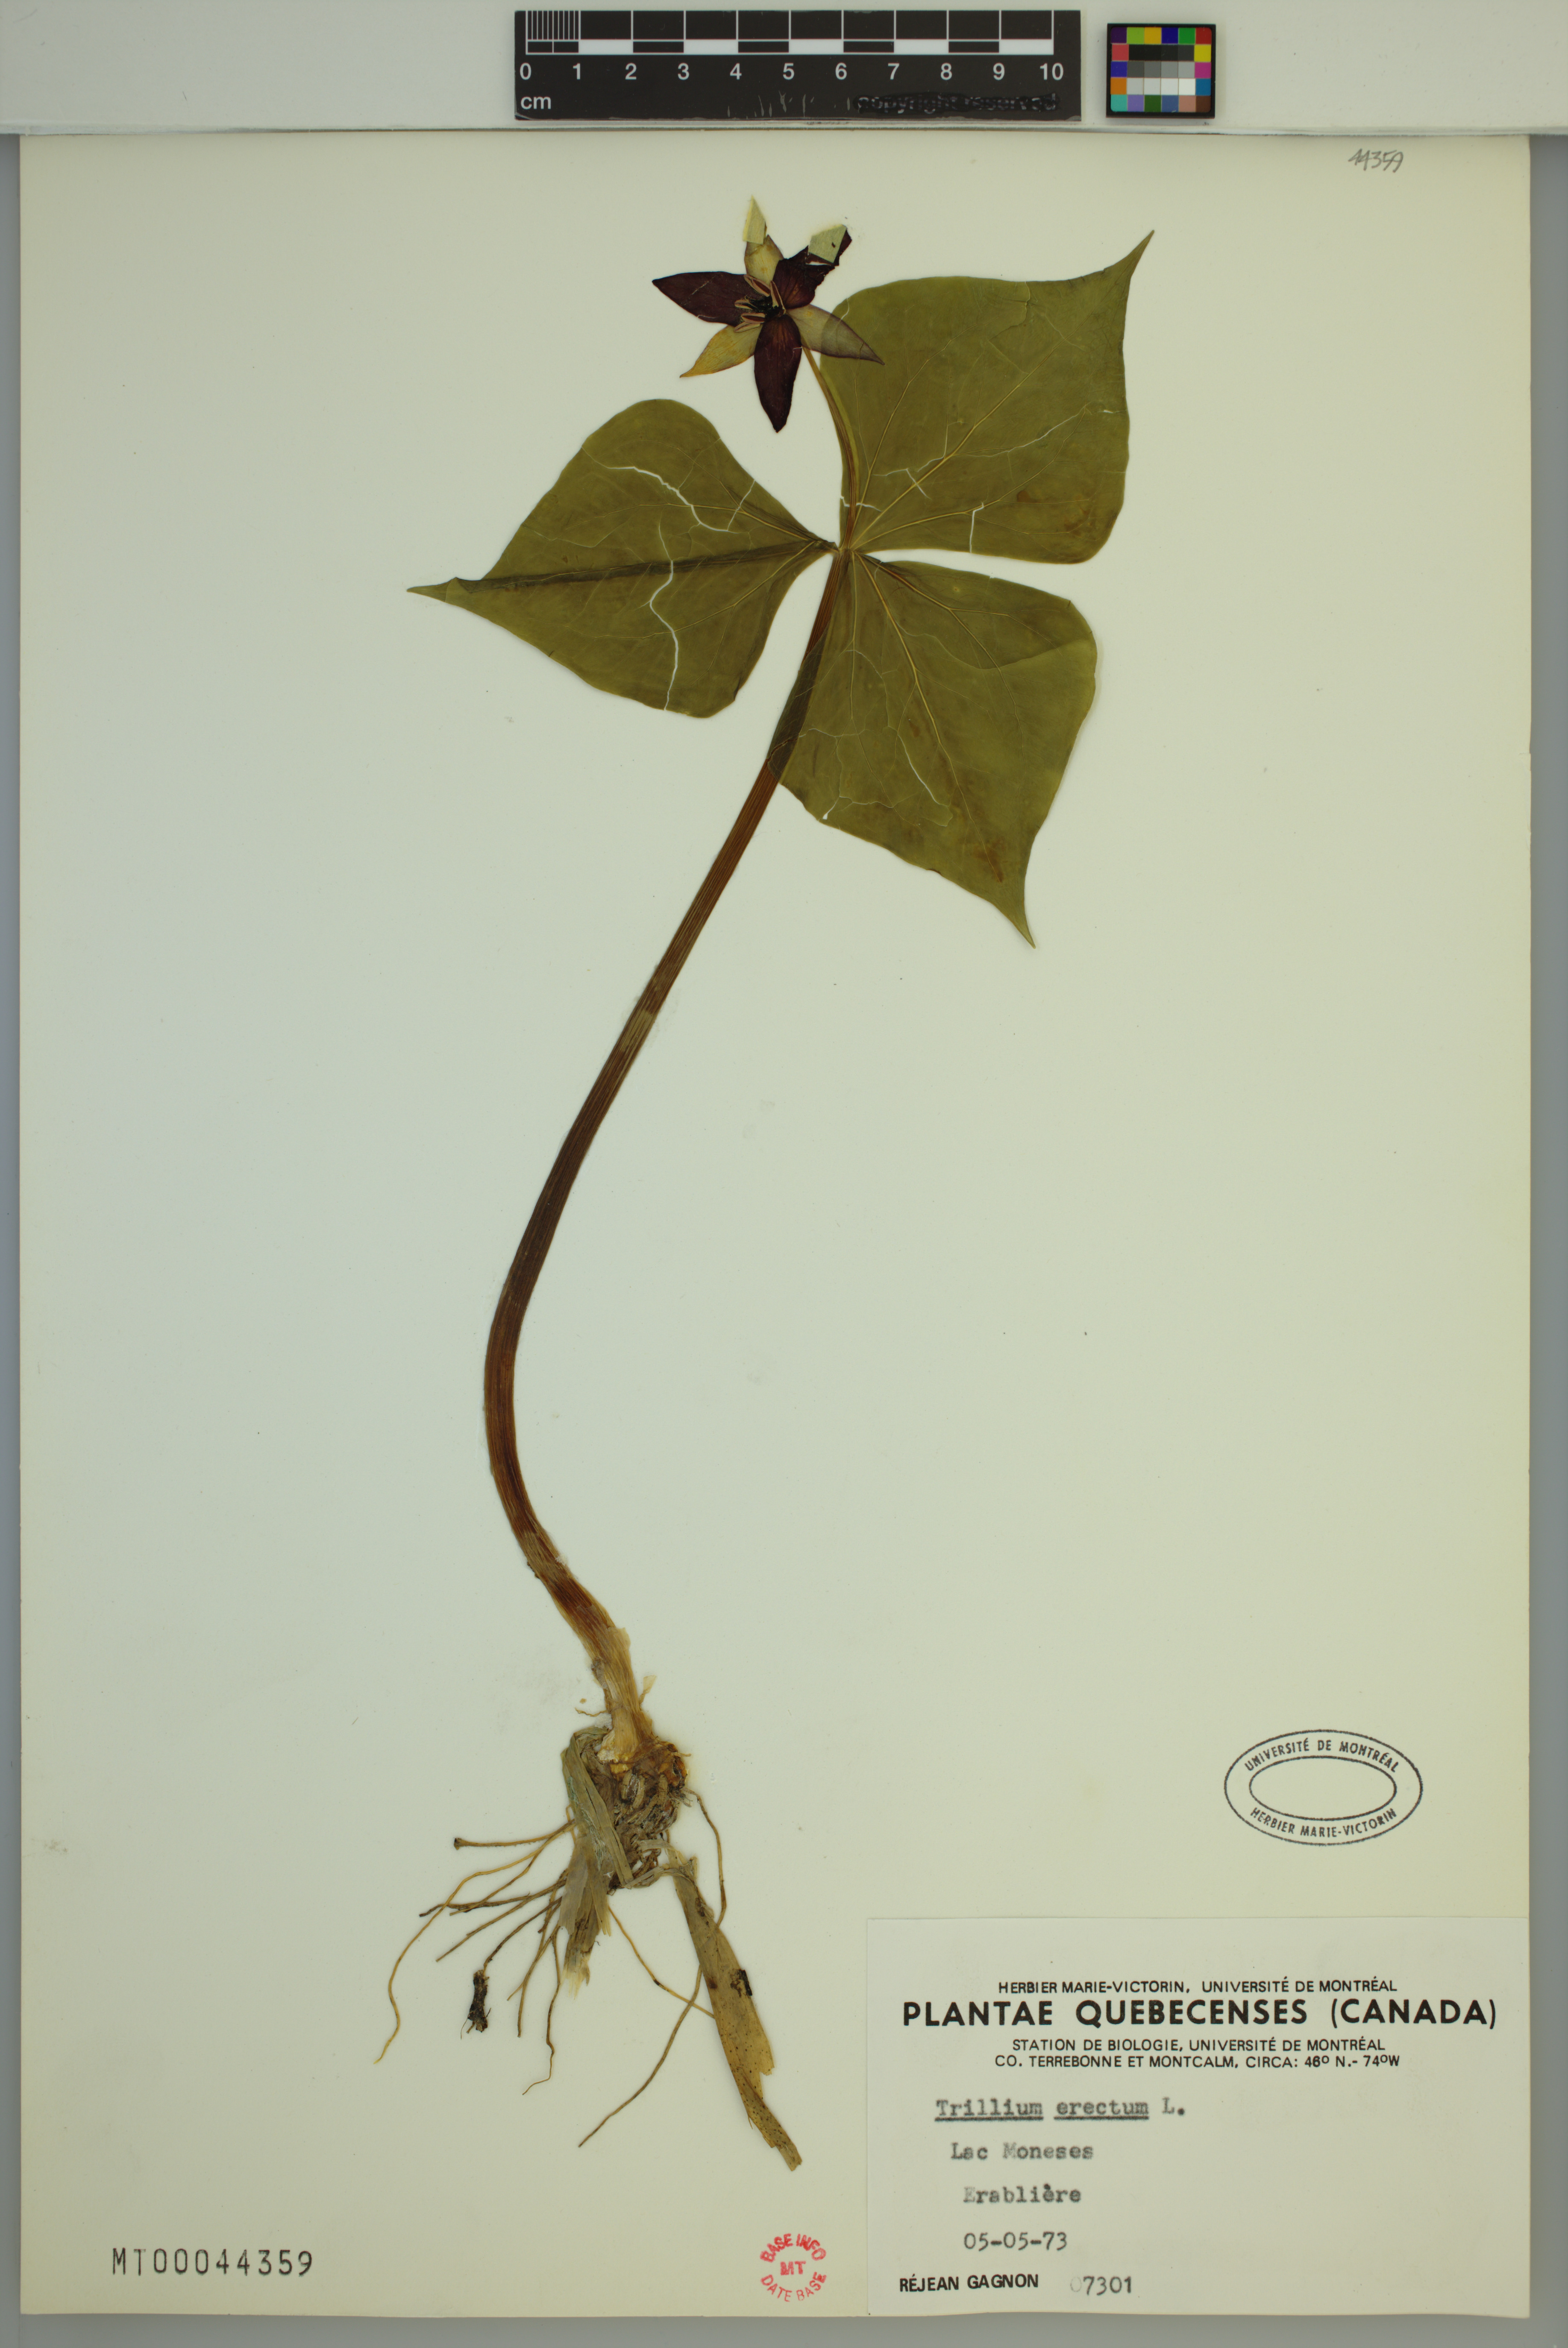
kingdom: Plantae
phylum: Tracheophyta
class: Liliopsida
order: Liliales
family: Melanthiaceae
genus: Trillium
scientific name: Trillium erectum
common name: Purple trillium
